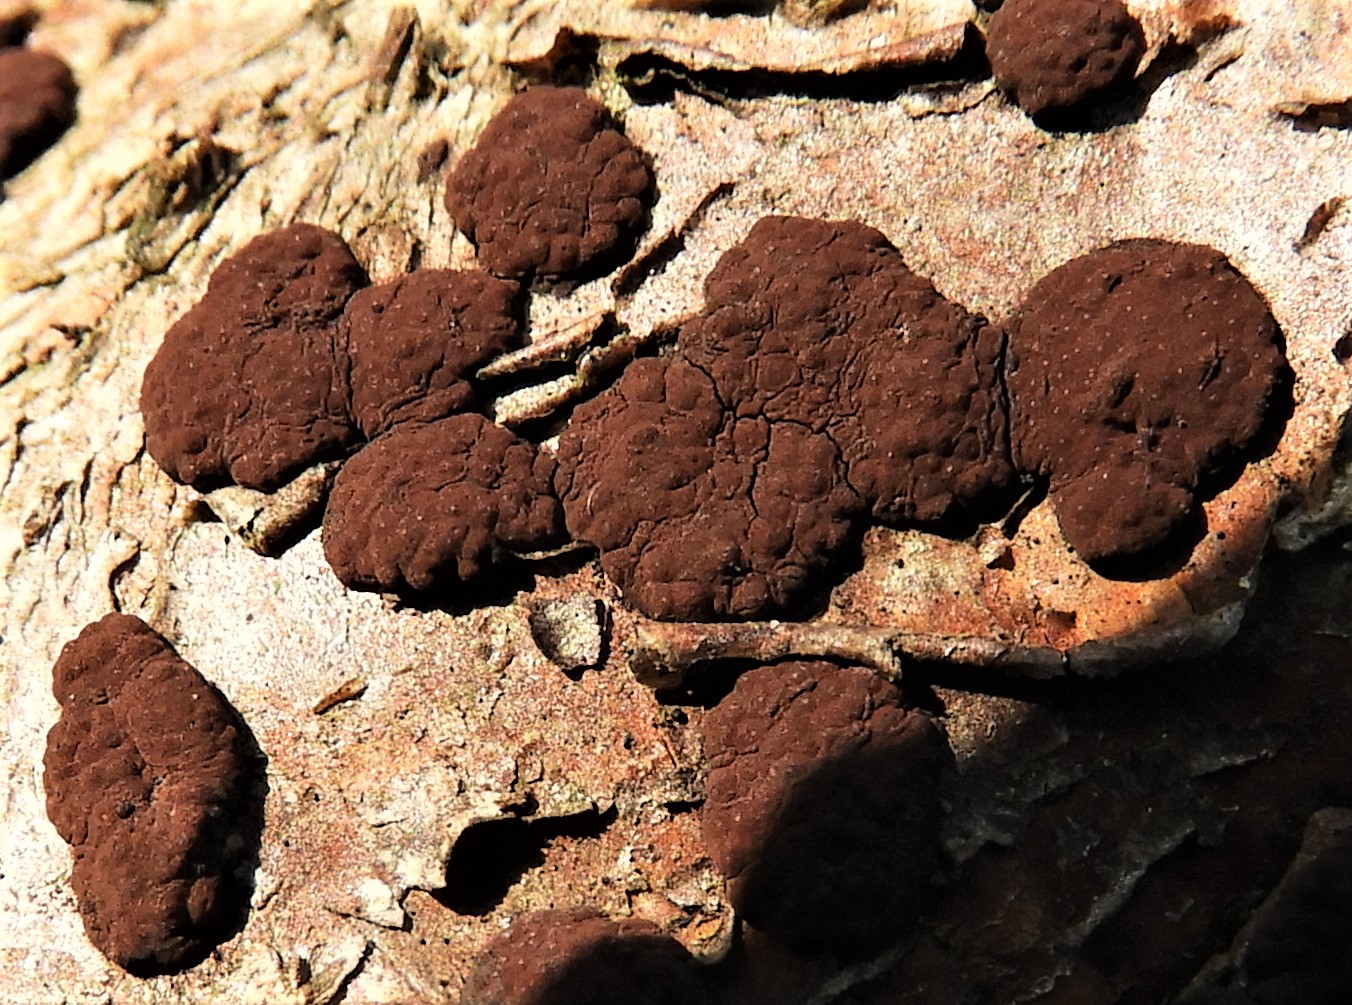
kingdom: Fungi
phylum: Ascomycota
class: Sordariomycetes
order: Xylariales
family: Hypoxylaceae
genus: Hypoxylon
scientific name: Hypoxylon fuscum
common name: kegleformet kulbær
